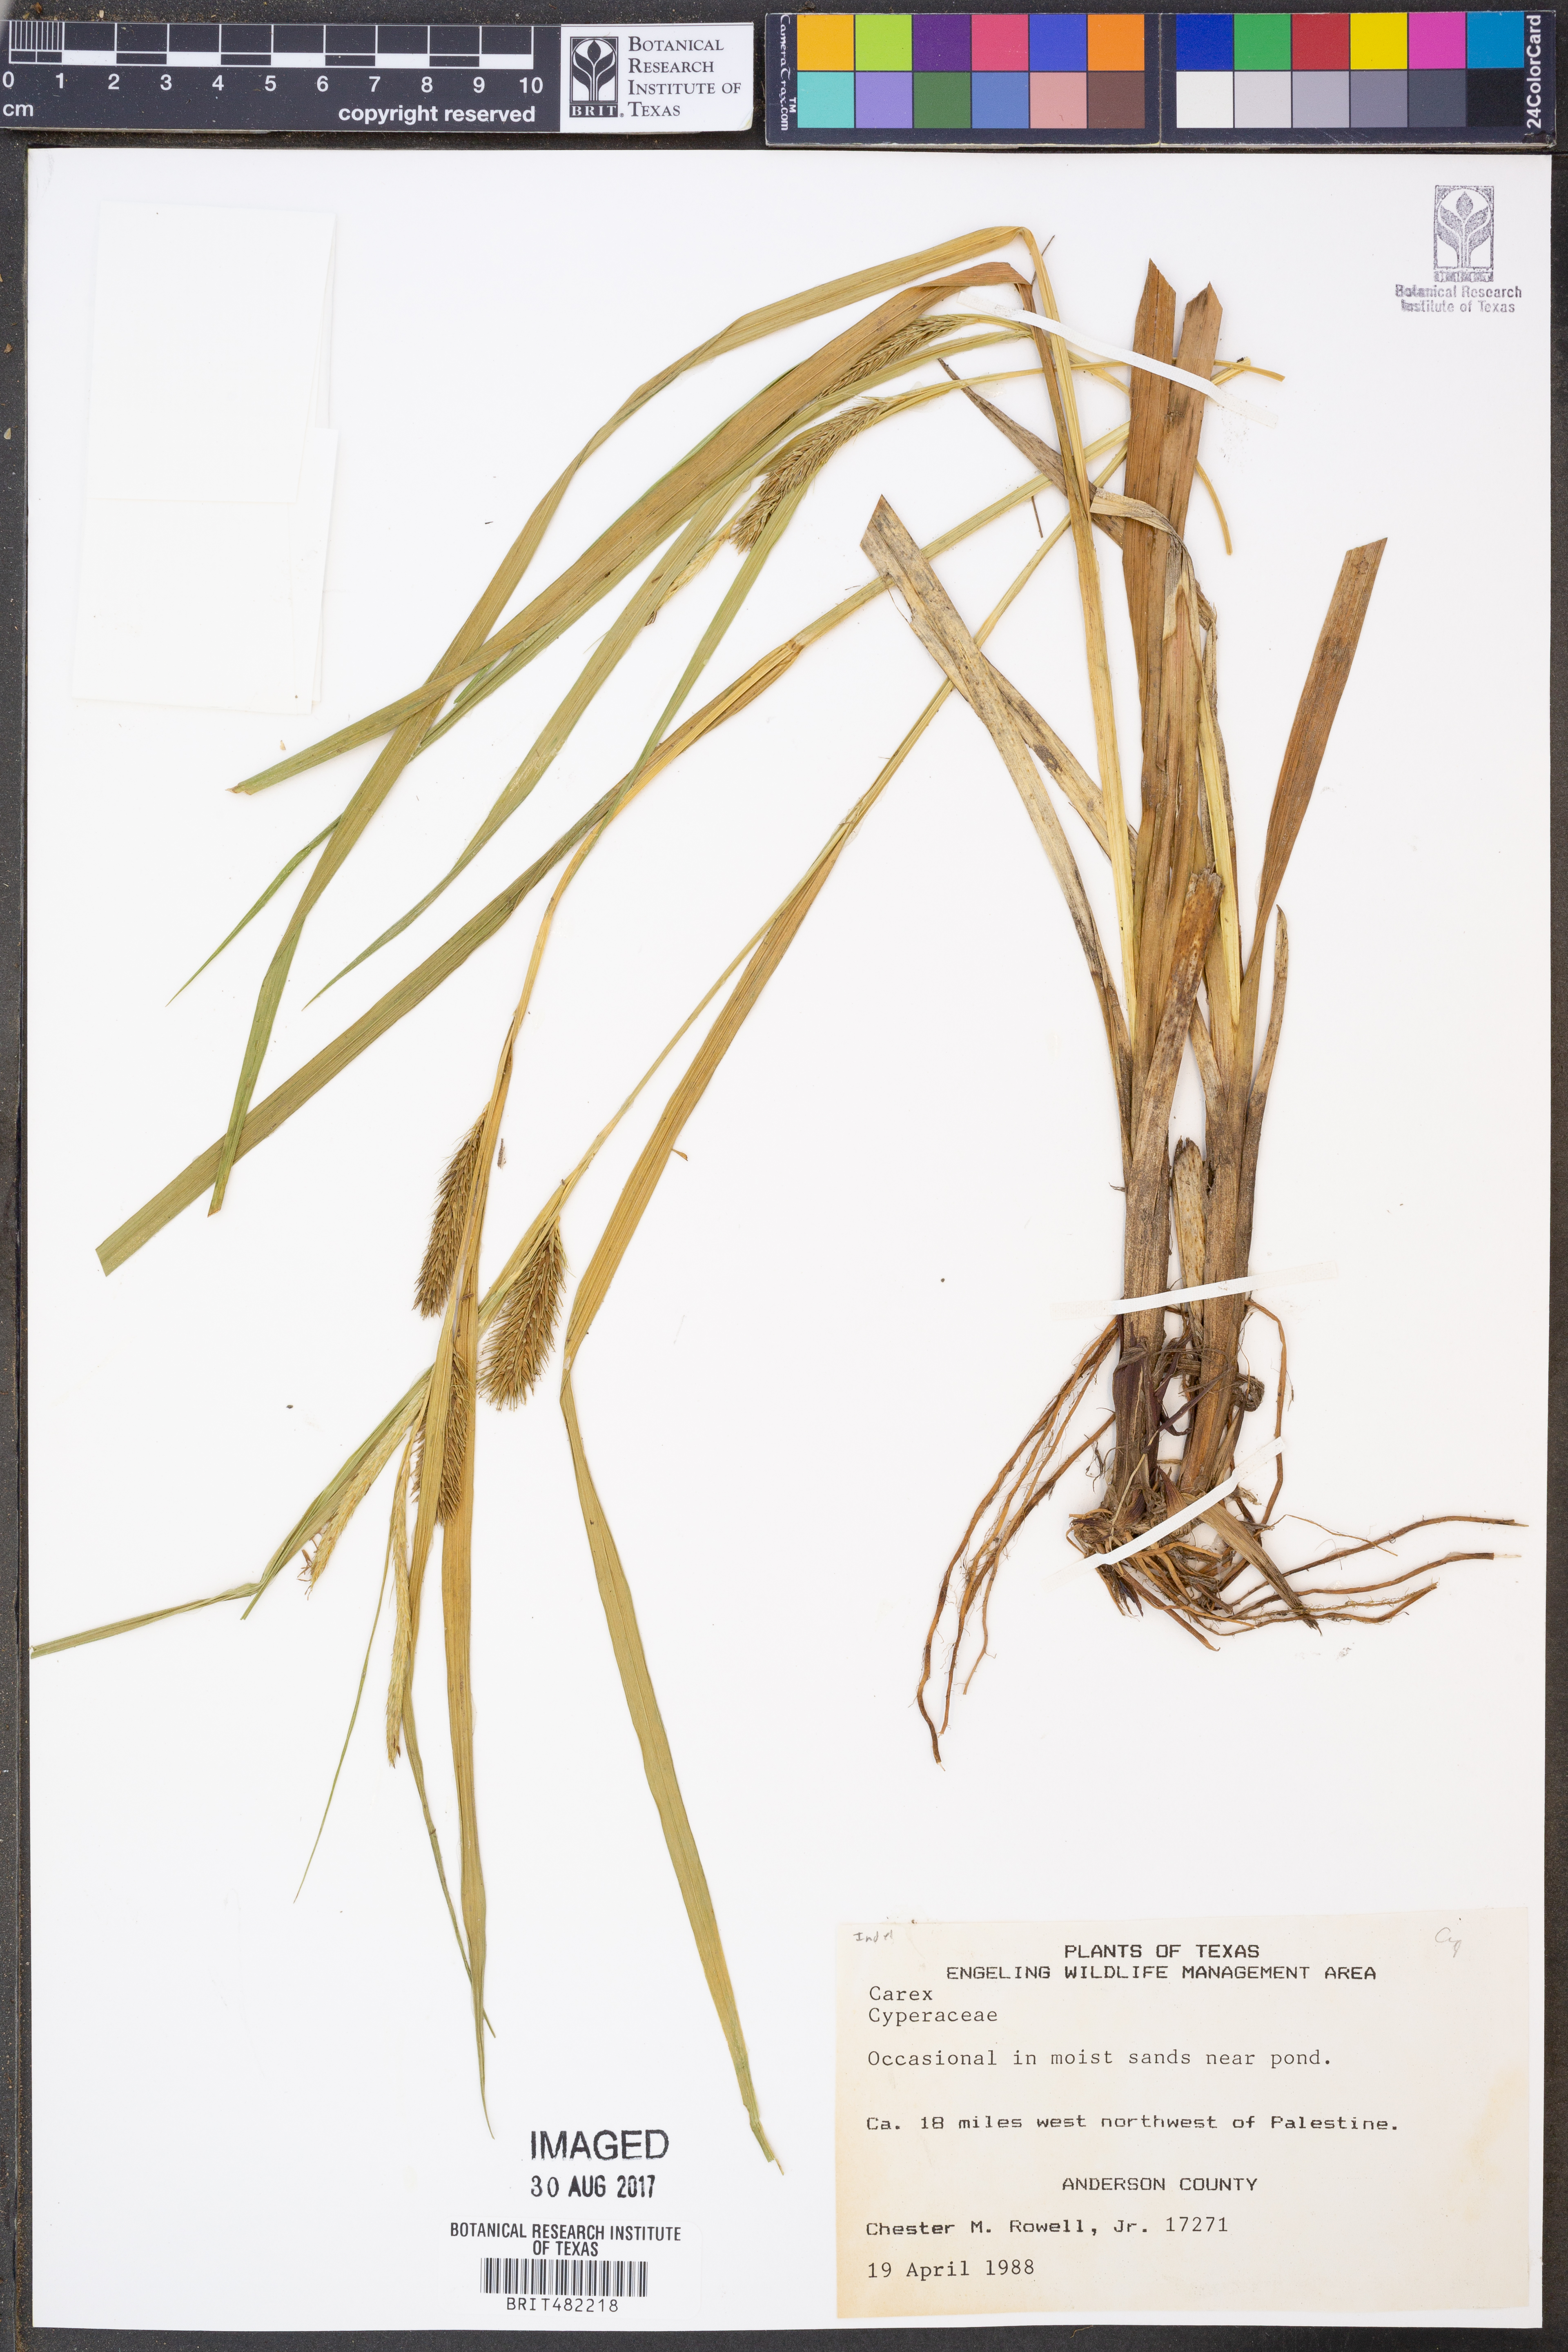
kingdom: Plantae
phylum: Tracheophyta
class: Liliopsida
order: Poales
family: Cyperaceae
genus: Carex
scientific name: Carex
